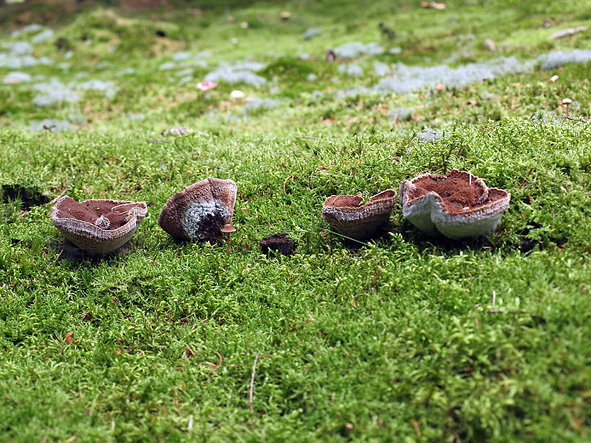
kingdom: Fungi
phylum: Basidiomycota
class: Agaricomycetes
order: Thelephorales
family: Bankeraceae
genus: Hydnellum
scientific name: Hydnellum ferrugineum
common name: rust-korkpigsvamp
